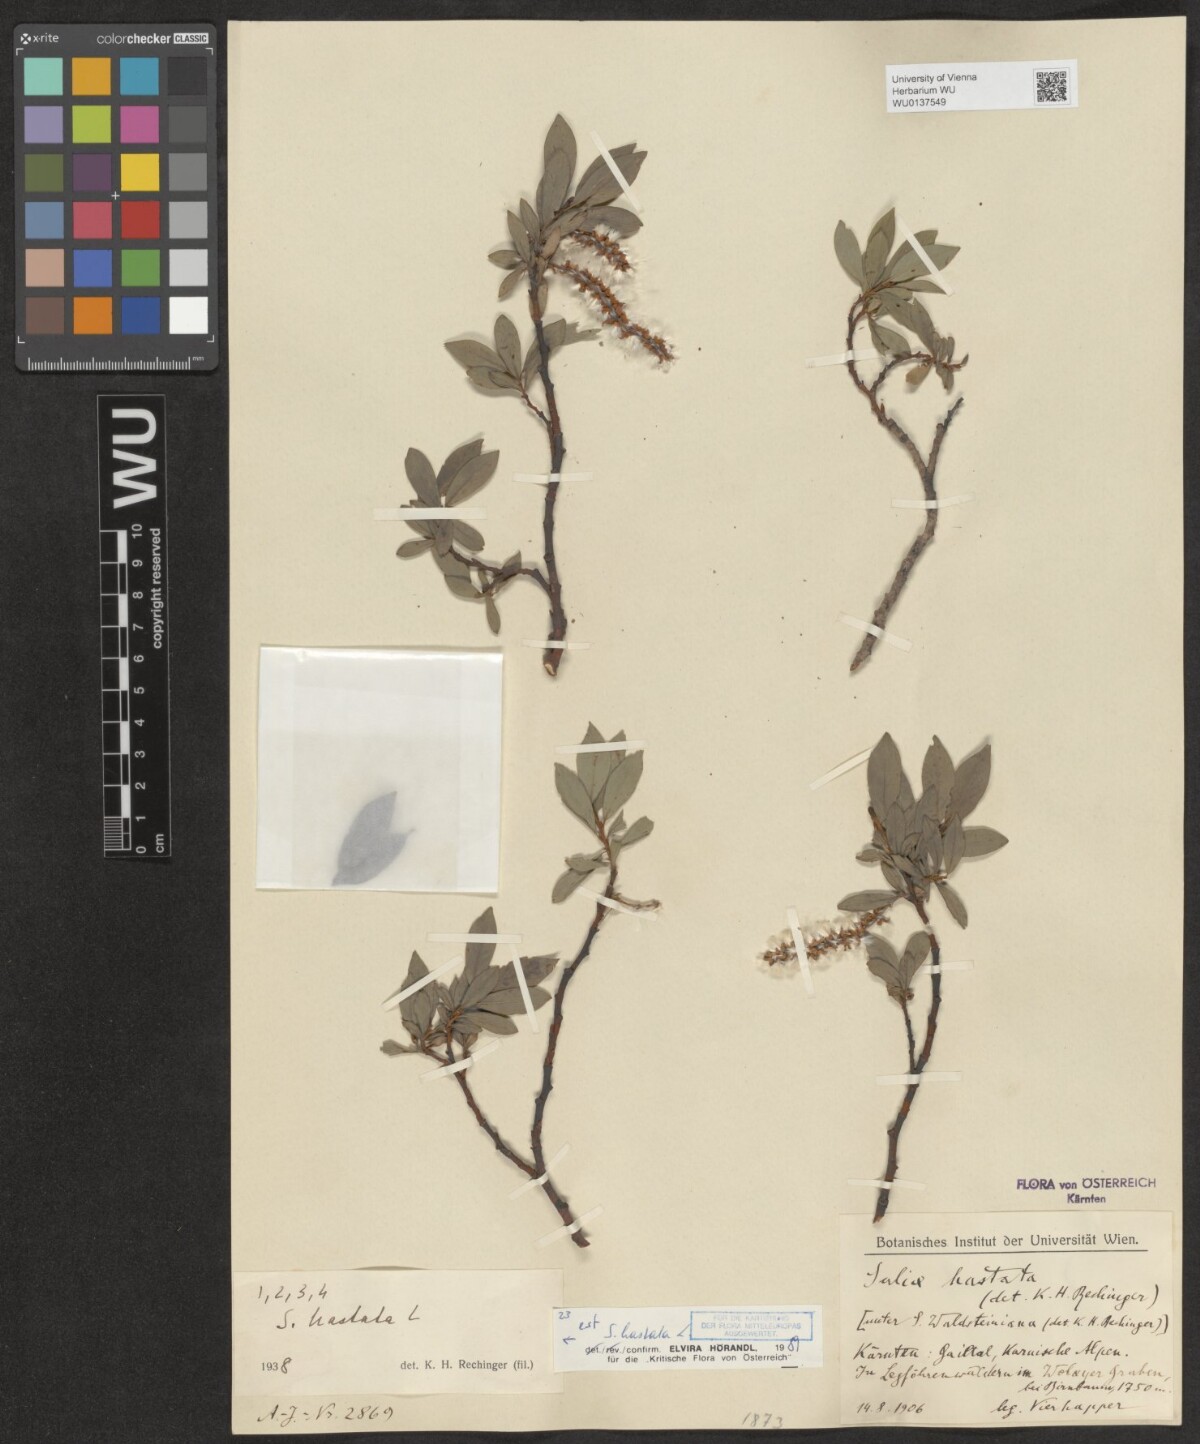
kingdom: Plantae
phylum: Tracheophyta
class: Magnoliopsida
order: Malpighiales
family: Salicaceae
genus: Salix
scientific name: Salix hastata
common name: Halberd willow
